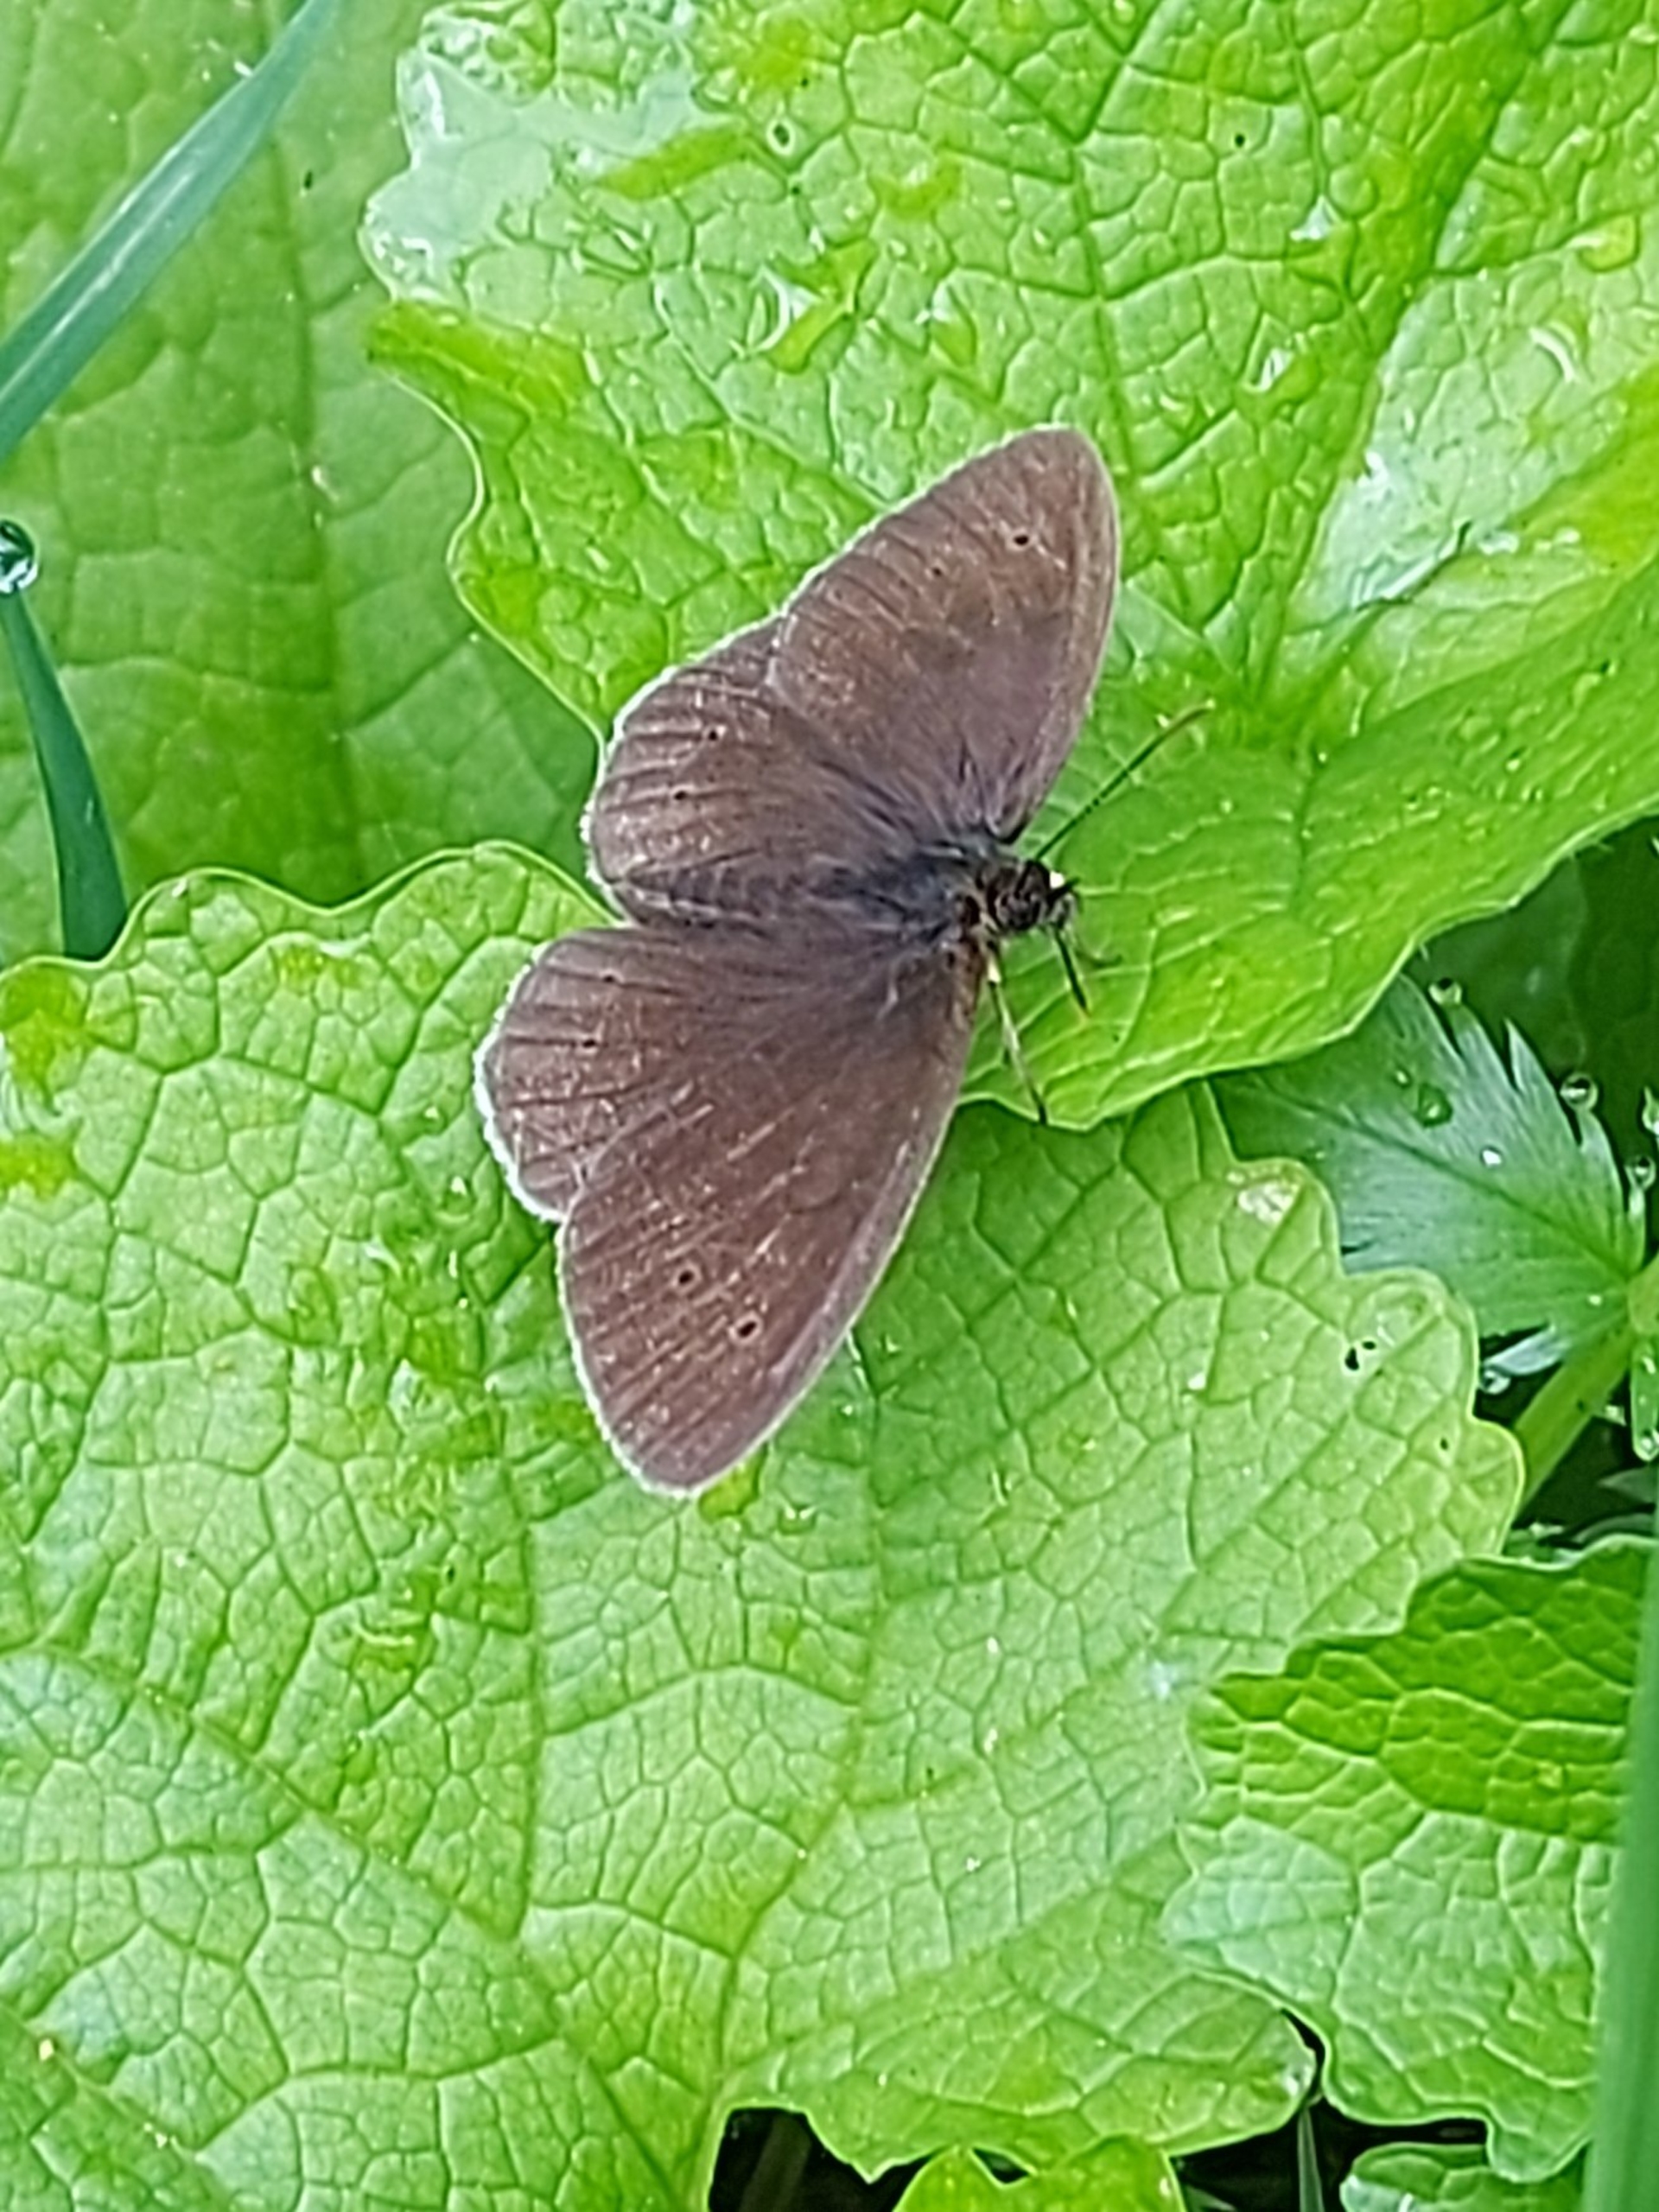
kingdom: Animalia
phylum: Arthropoda
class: Insecta
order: Lepidoptera
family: Nymphalidae
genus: Aphantopus
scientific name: Aphantopus hyperantus
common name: Engrandøje
